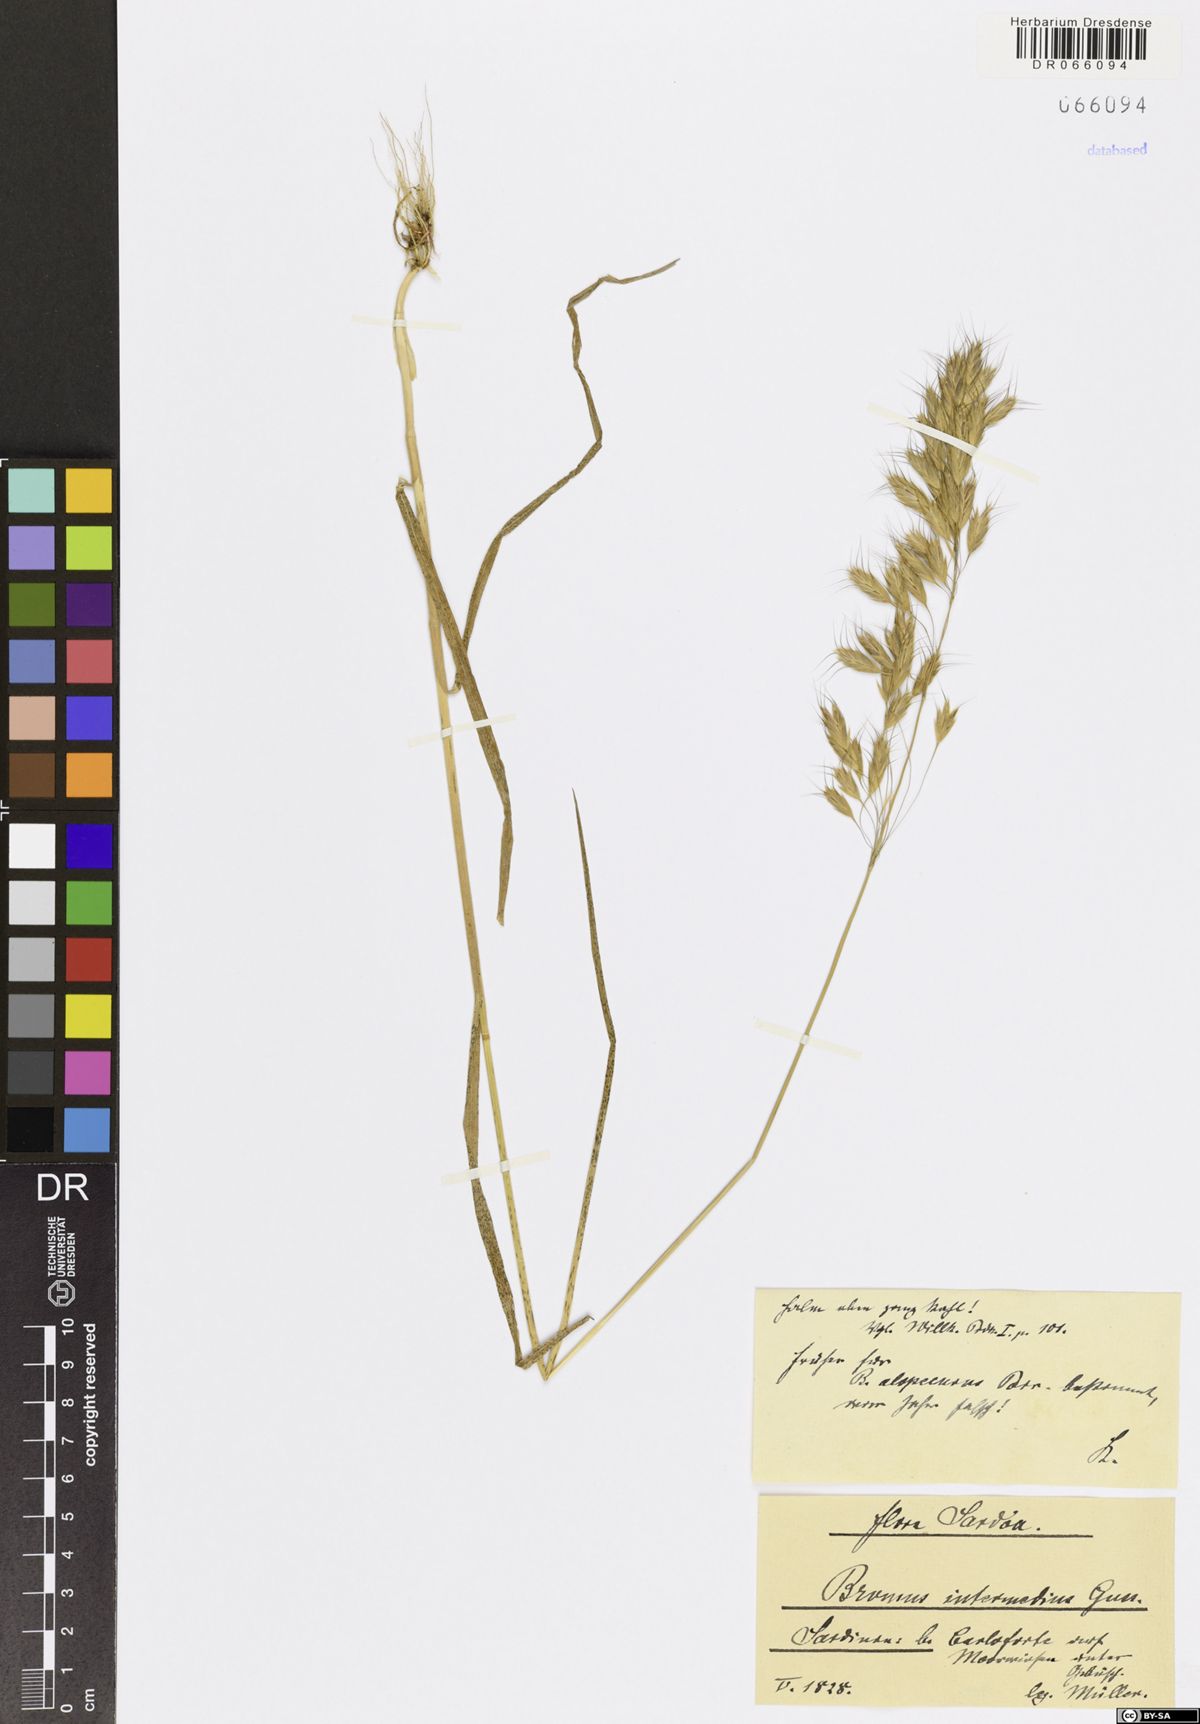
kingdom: Plantae
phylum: Tracheophyta
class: Liliopsida
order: Poales
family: Poaceae
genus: Bromus
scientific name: Bromus intermedius
